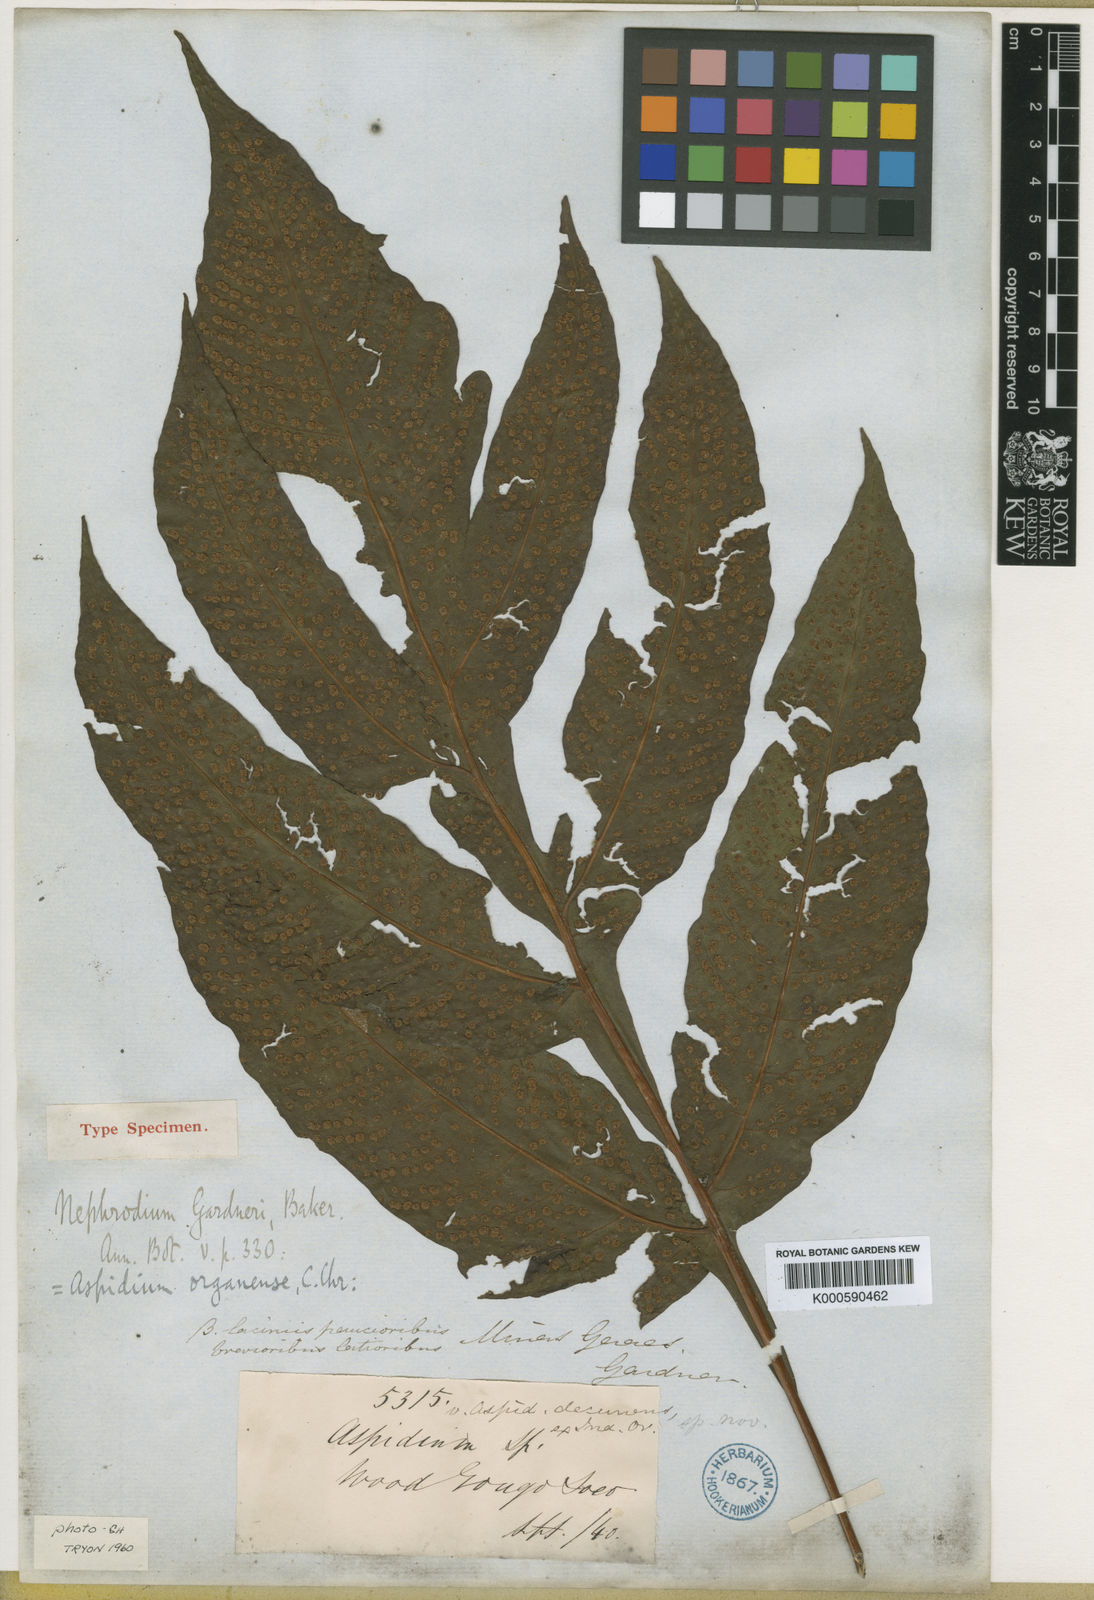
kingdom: Plantae
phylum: Tracheophyta
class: Polypodiopsida
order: Polypodiales
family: Tectariaceae
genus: Tectaria
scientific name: Tectaria organensis
